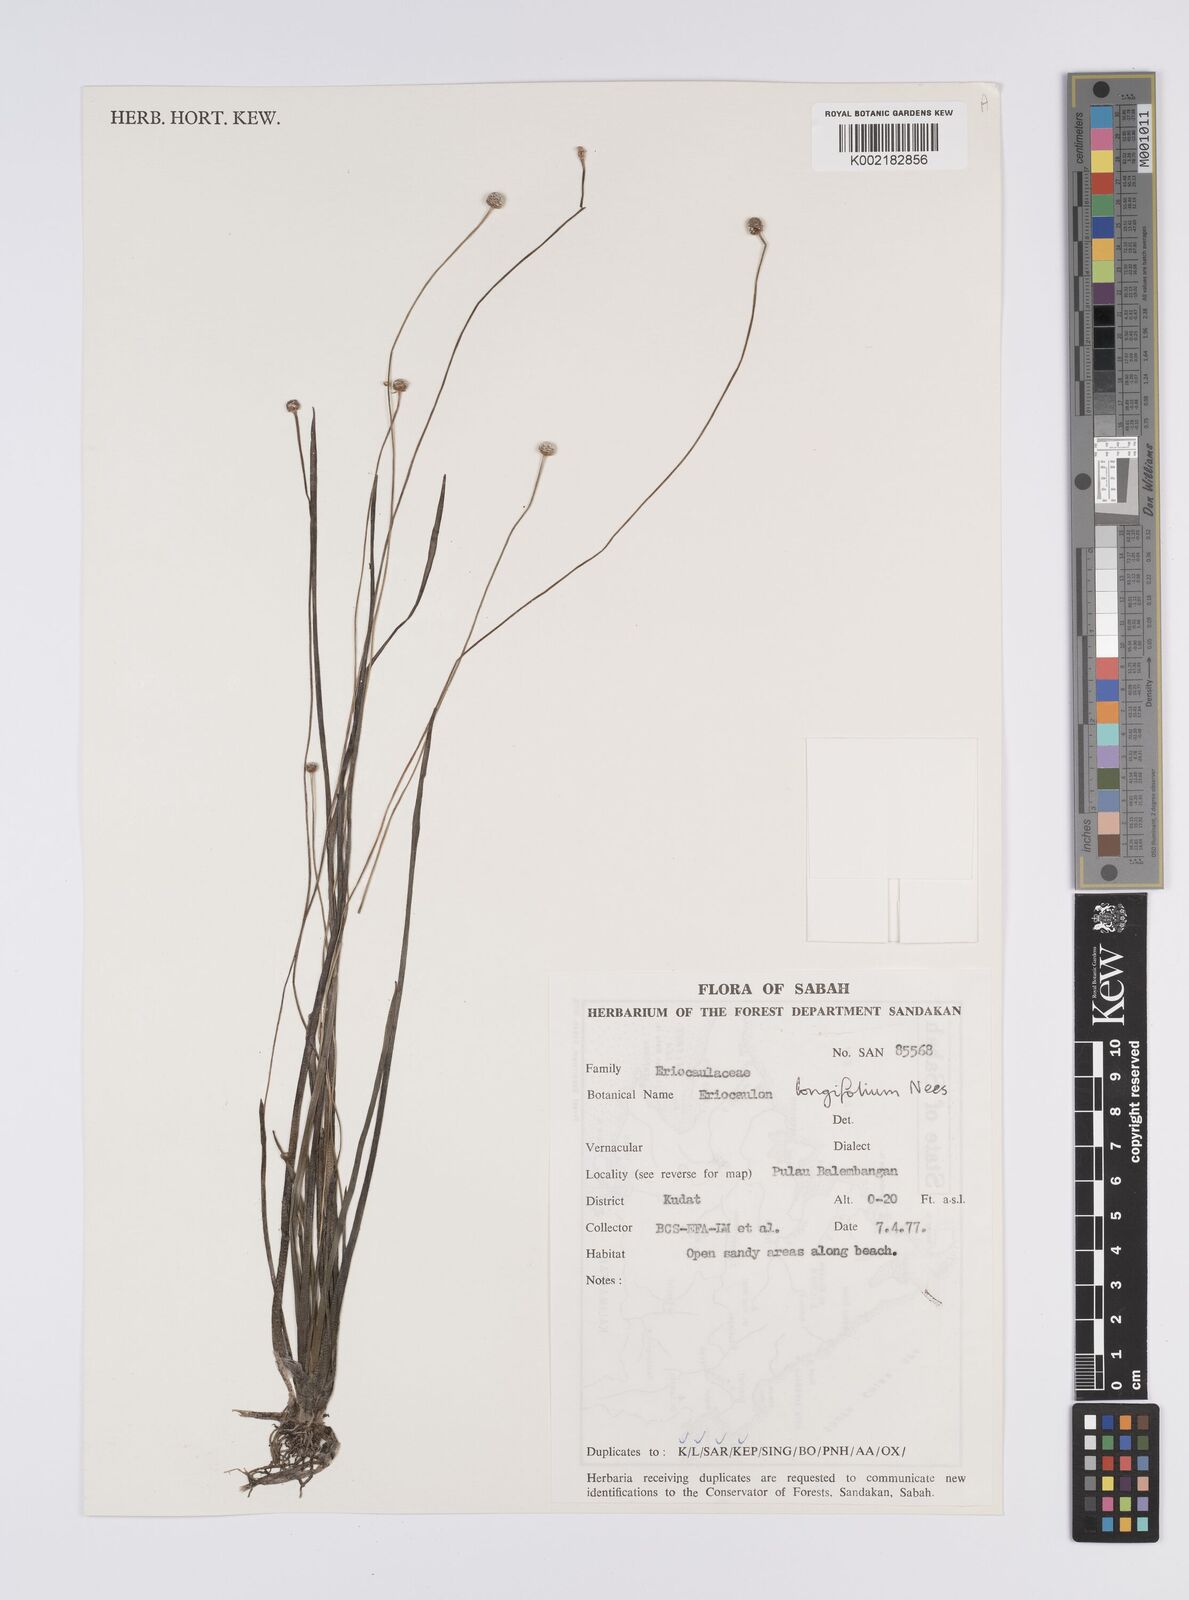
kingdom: Plantae
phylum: Tracheophyta
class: Liliopsida
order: Poales
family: Eriocaulaceae
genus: Eriocaulon
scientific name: Eriocaulon willdenovianum
